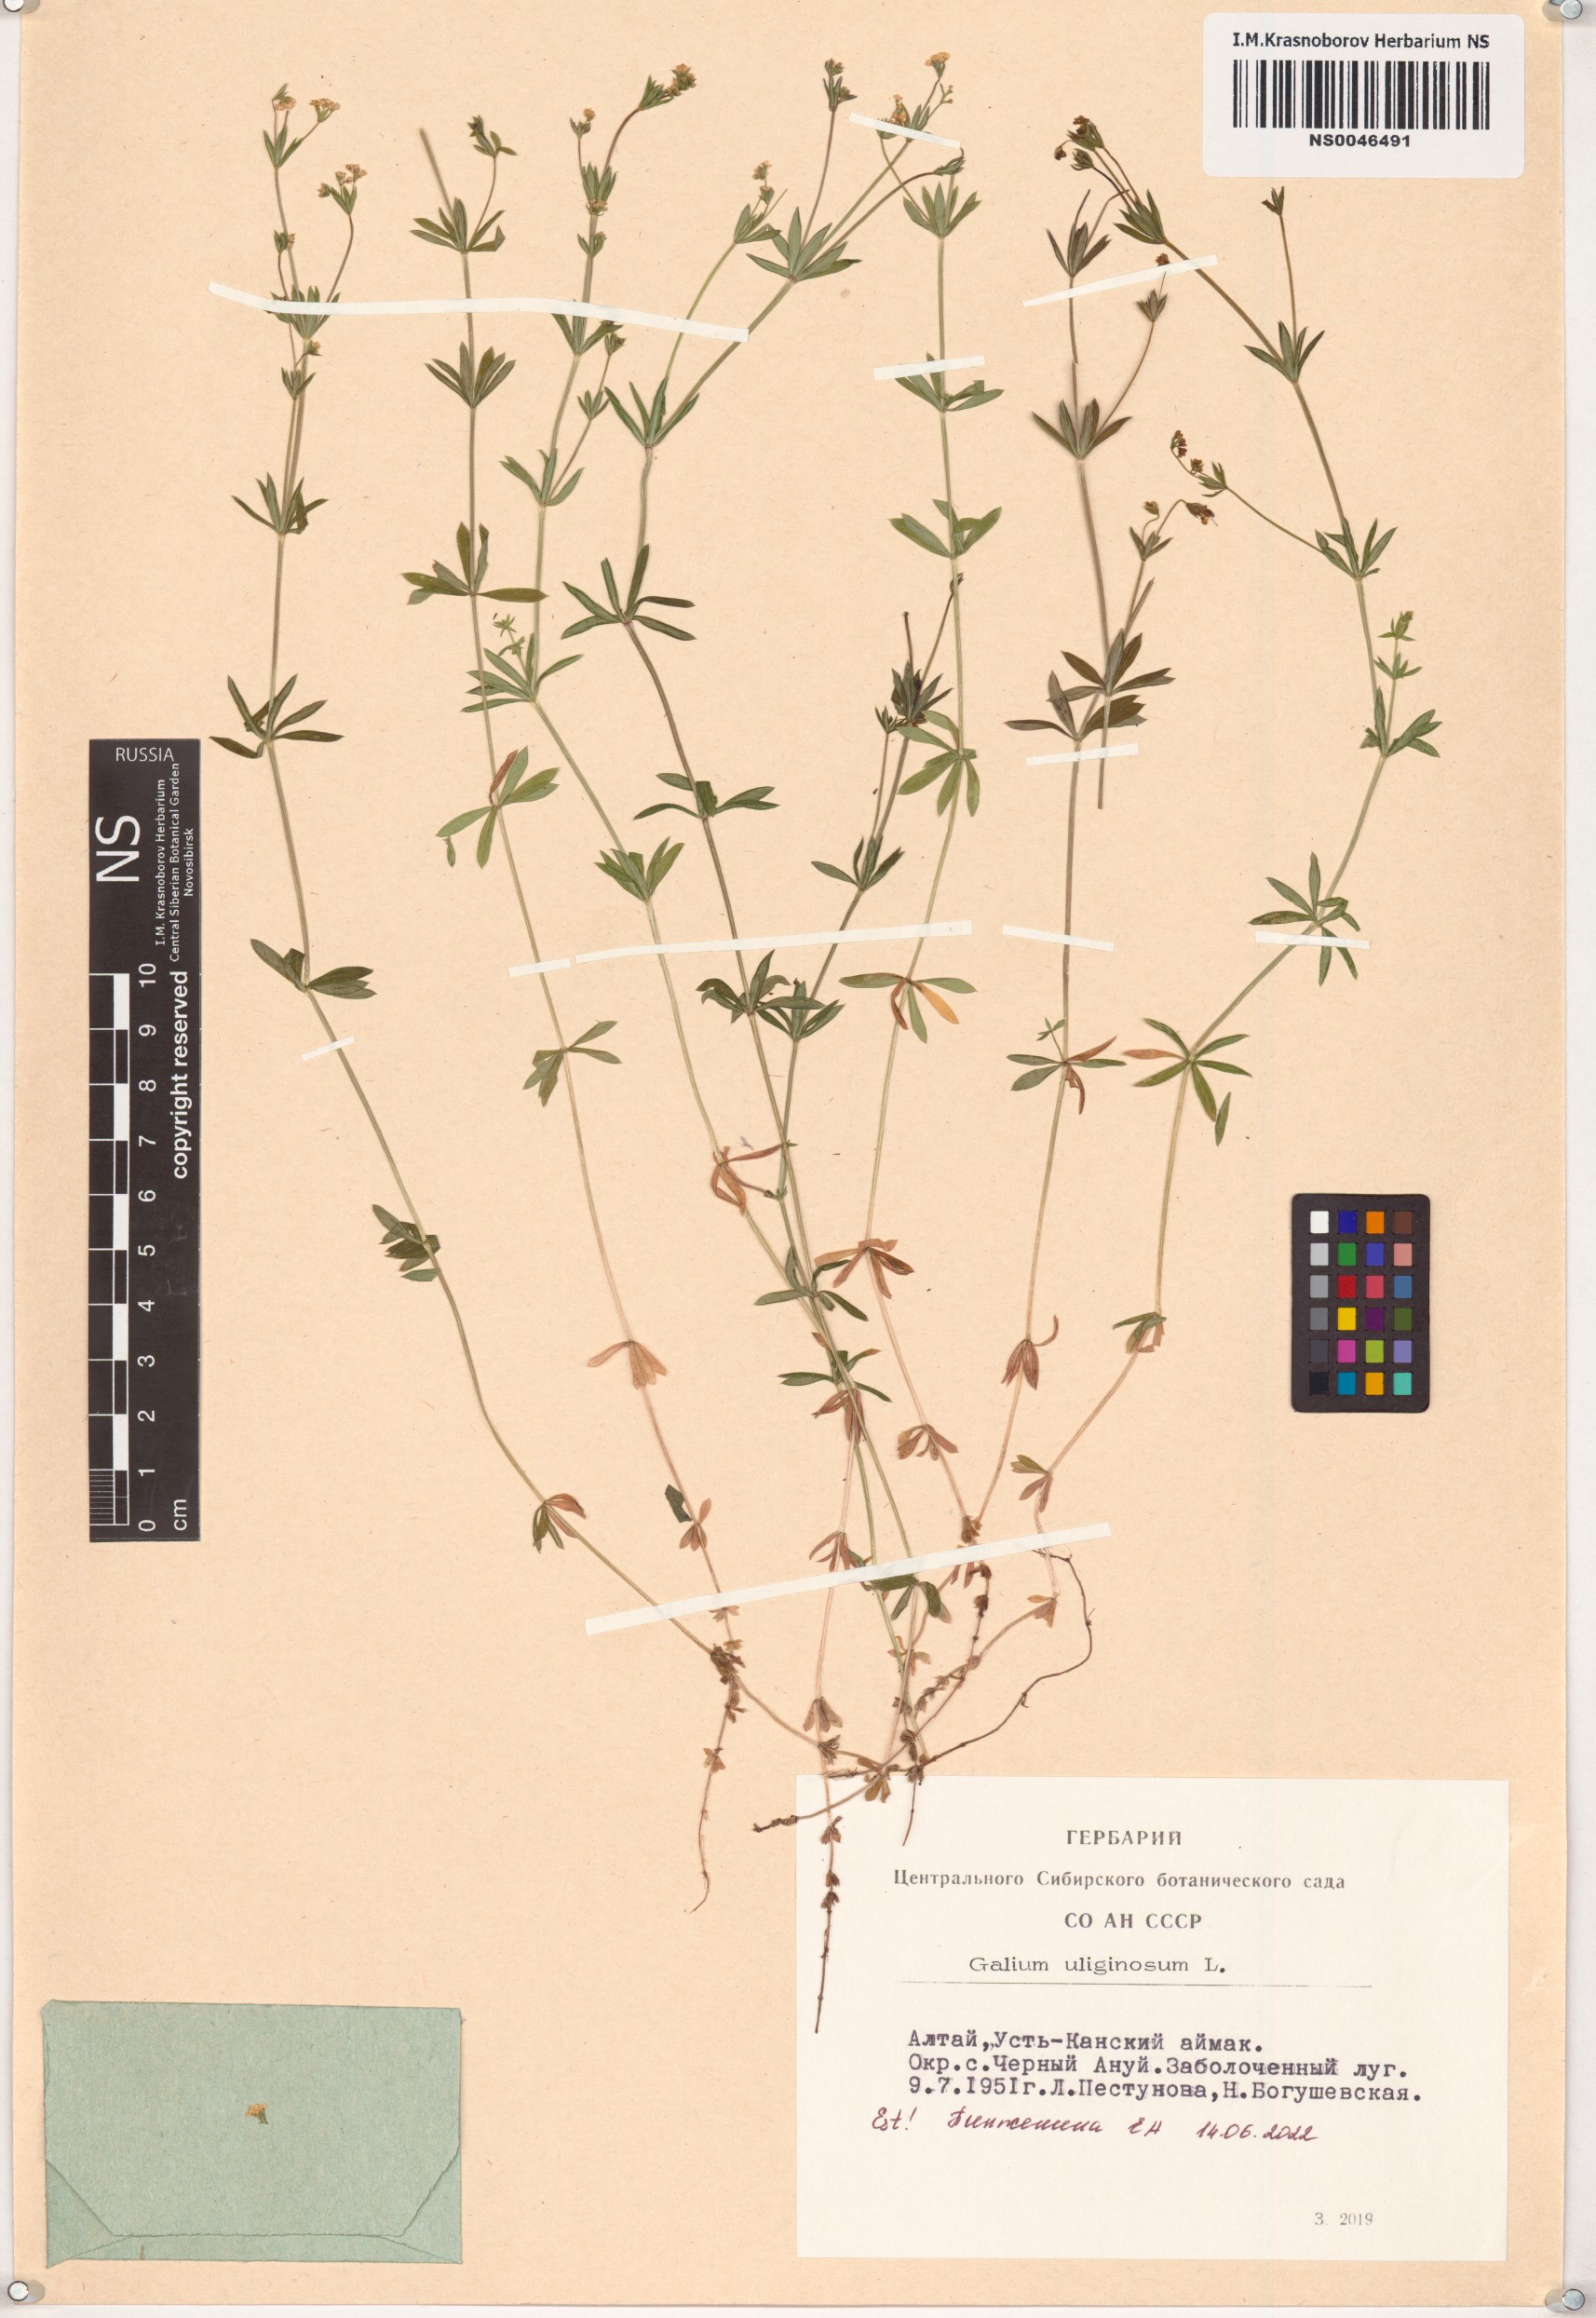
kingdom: Plantae
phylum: Tracheophyta
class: Magnoliopsida
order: Gentianales
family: Rubiaceae
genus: Galium
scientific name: Galium uliginosum
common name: Fen bedstraw
